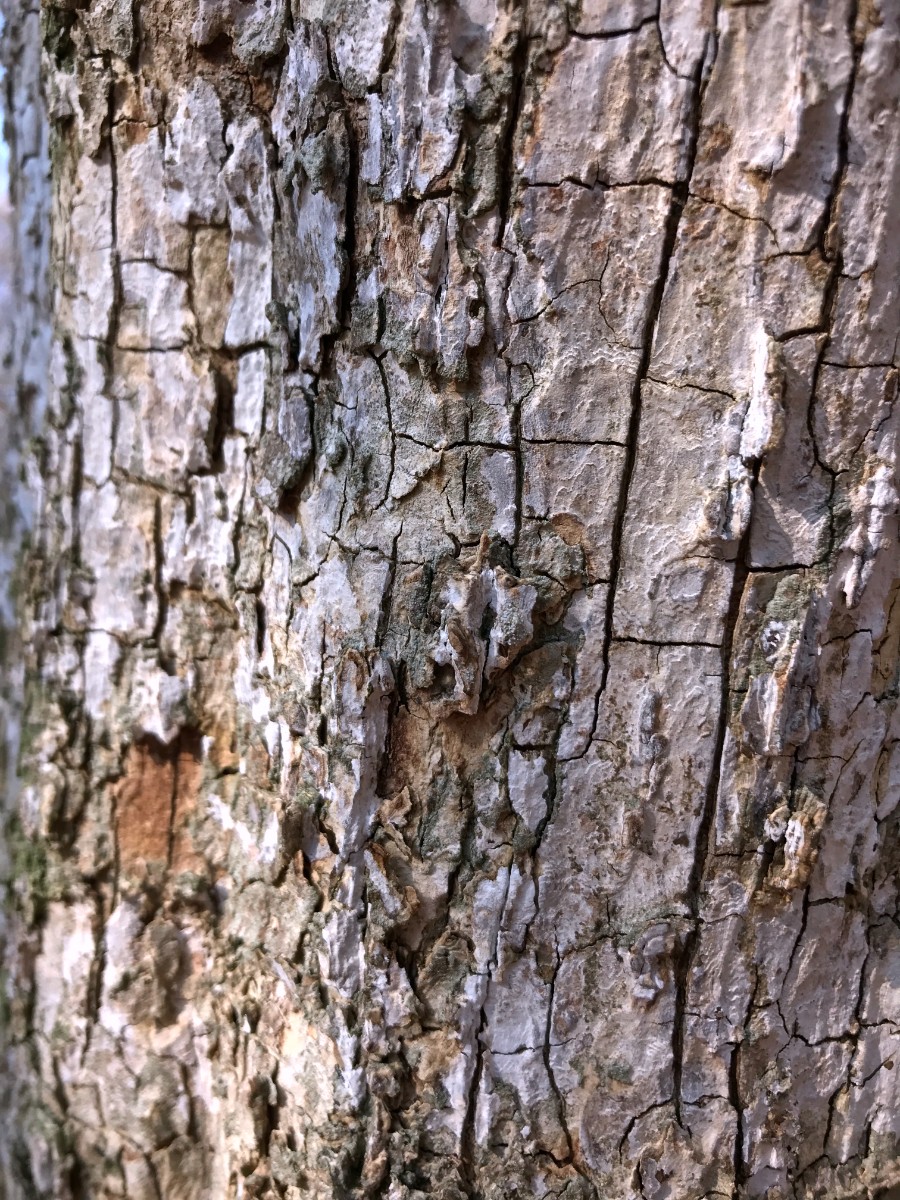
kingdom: Fungi
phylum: Basidiomycota
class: Agaricomycetes
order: Agaricales
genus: Dendrothele
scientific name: Dendrothele acerina
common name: navr-kalkplet
